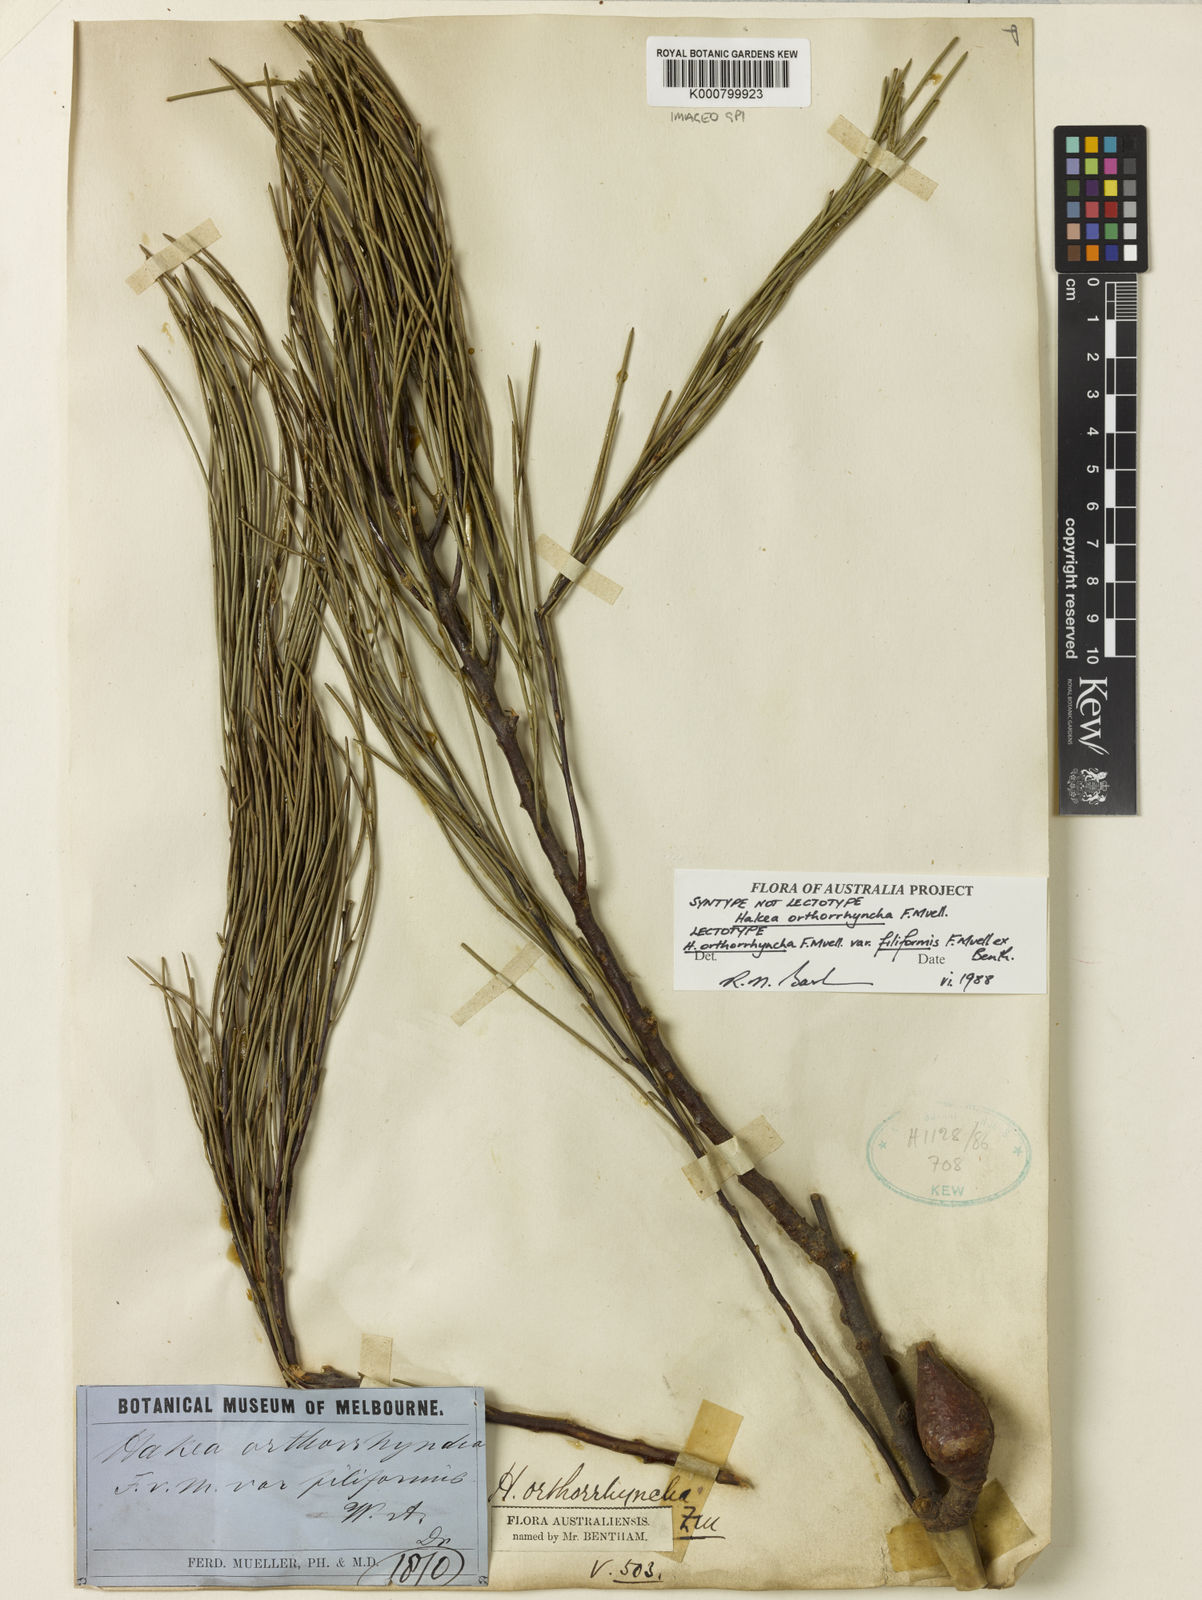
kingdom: Plantae
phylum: Tracheophyta
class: Magnoliopsida
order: Proteales
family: Proteaceae
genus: Hakea
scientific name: Hakea orthorrhyncha
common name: Bird beak hakea
